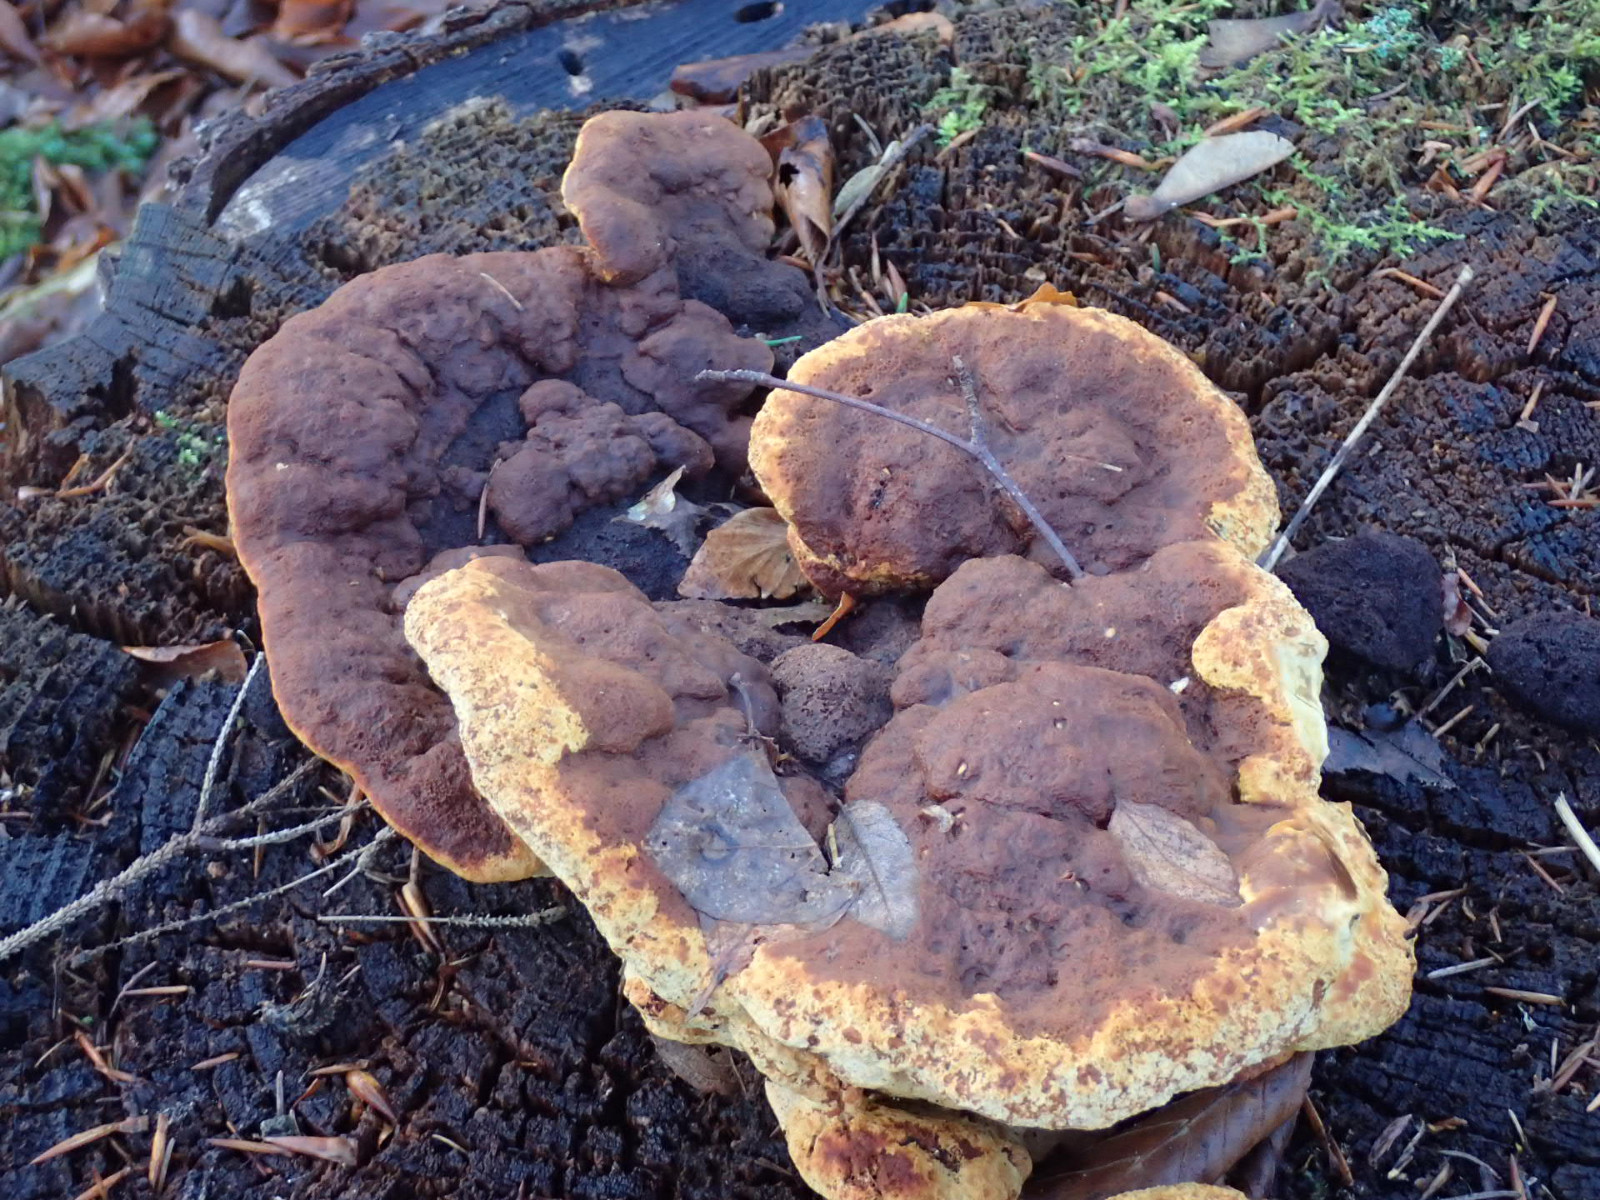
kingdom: Fungi
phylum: Basidiomycota
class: Agaricomycetes
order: Gloeophyllales
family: Gloeophyllaceae
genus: Gloeophyllum
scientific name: Gloeophyllum odoratum
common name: duftende korkhat
